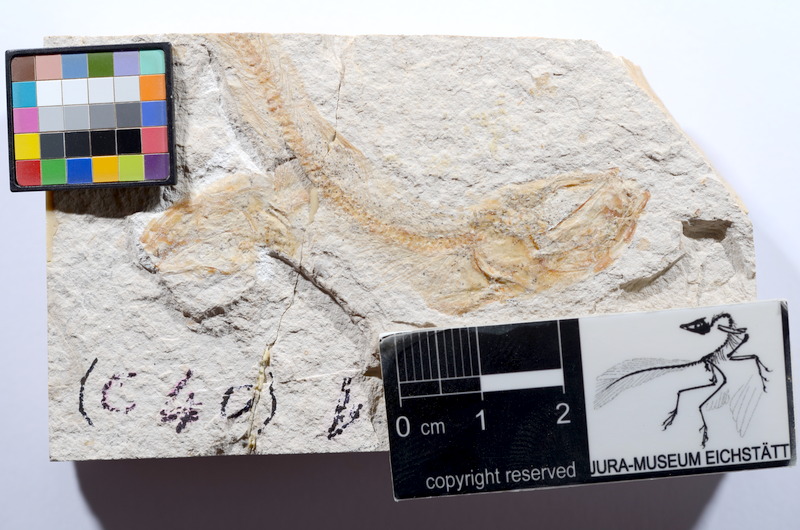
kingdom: Animalia
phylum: Chordata
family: Ascalaboidae
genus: Tharsis
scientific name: Tharsis dubius
